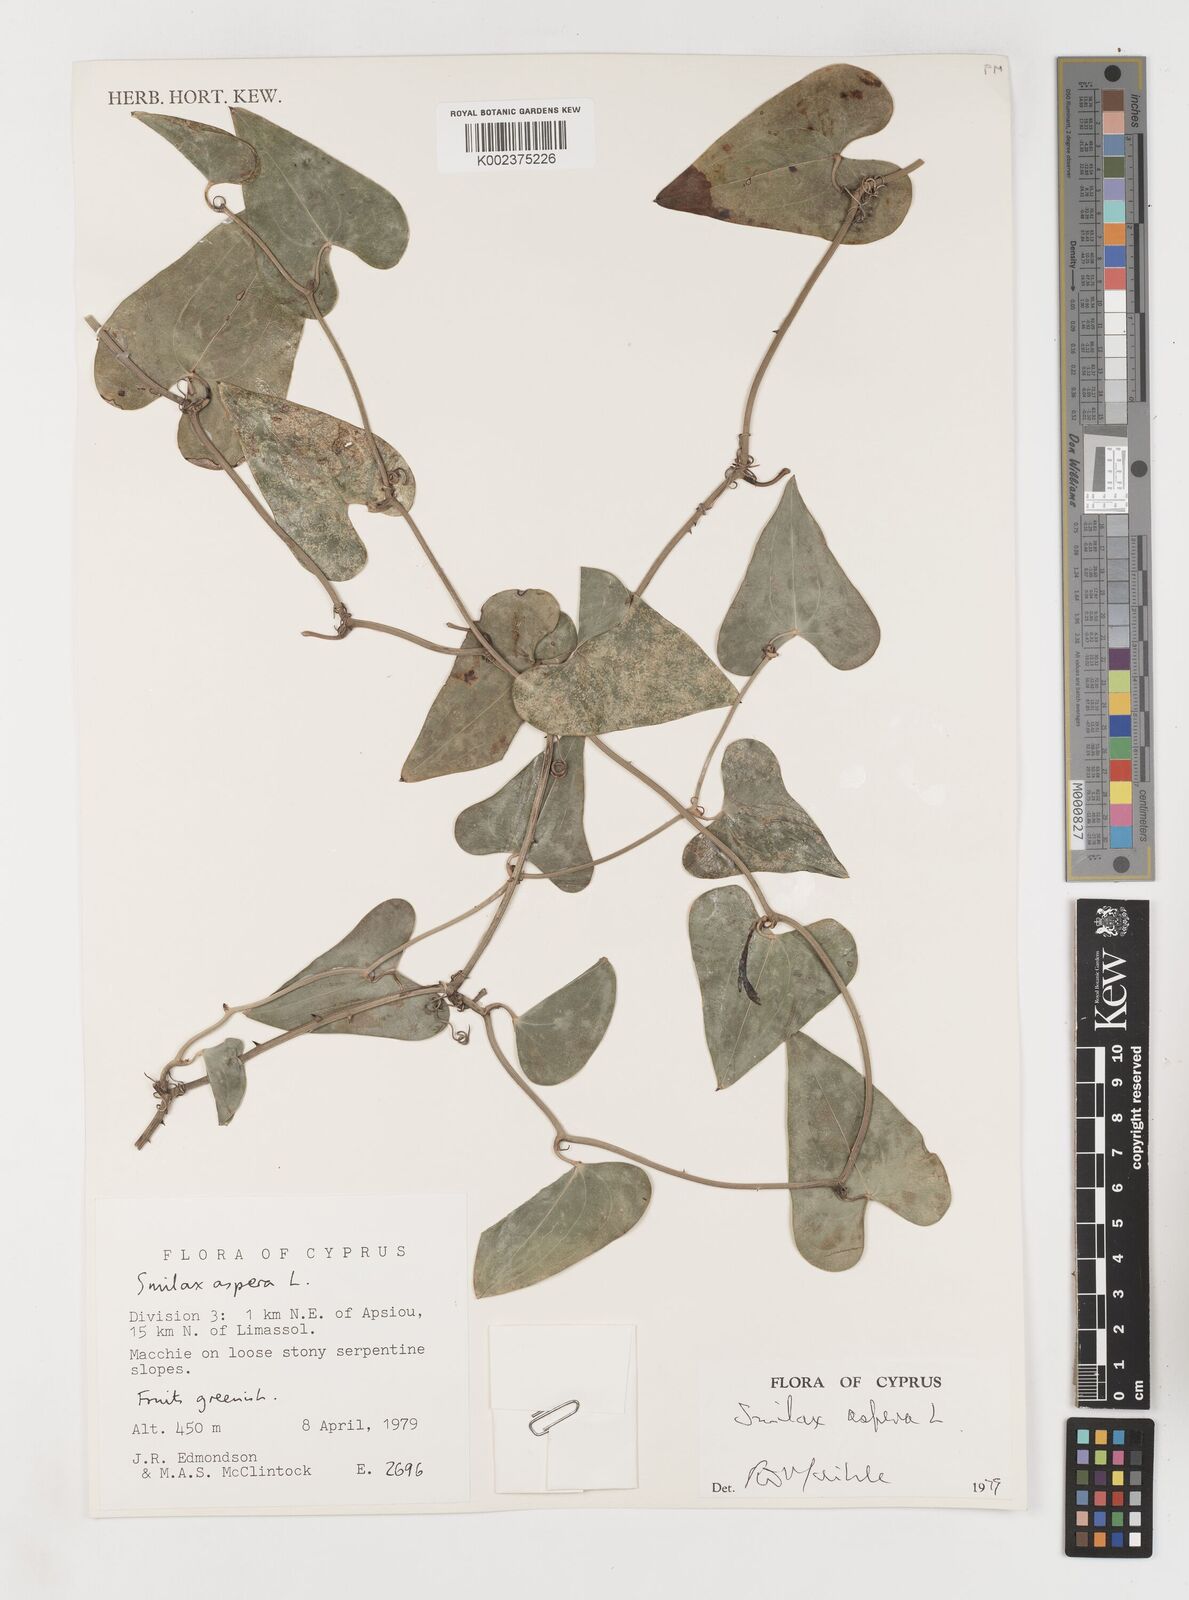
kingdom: Plantae
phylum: Tracheophyta
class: Liliopsida
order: Liliales
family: Smilacaceae
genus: Smilax
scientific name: Smilax aspera
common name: Common smilax
